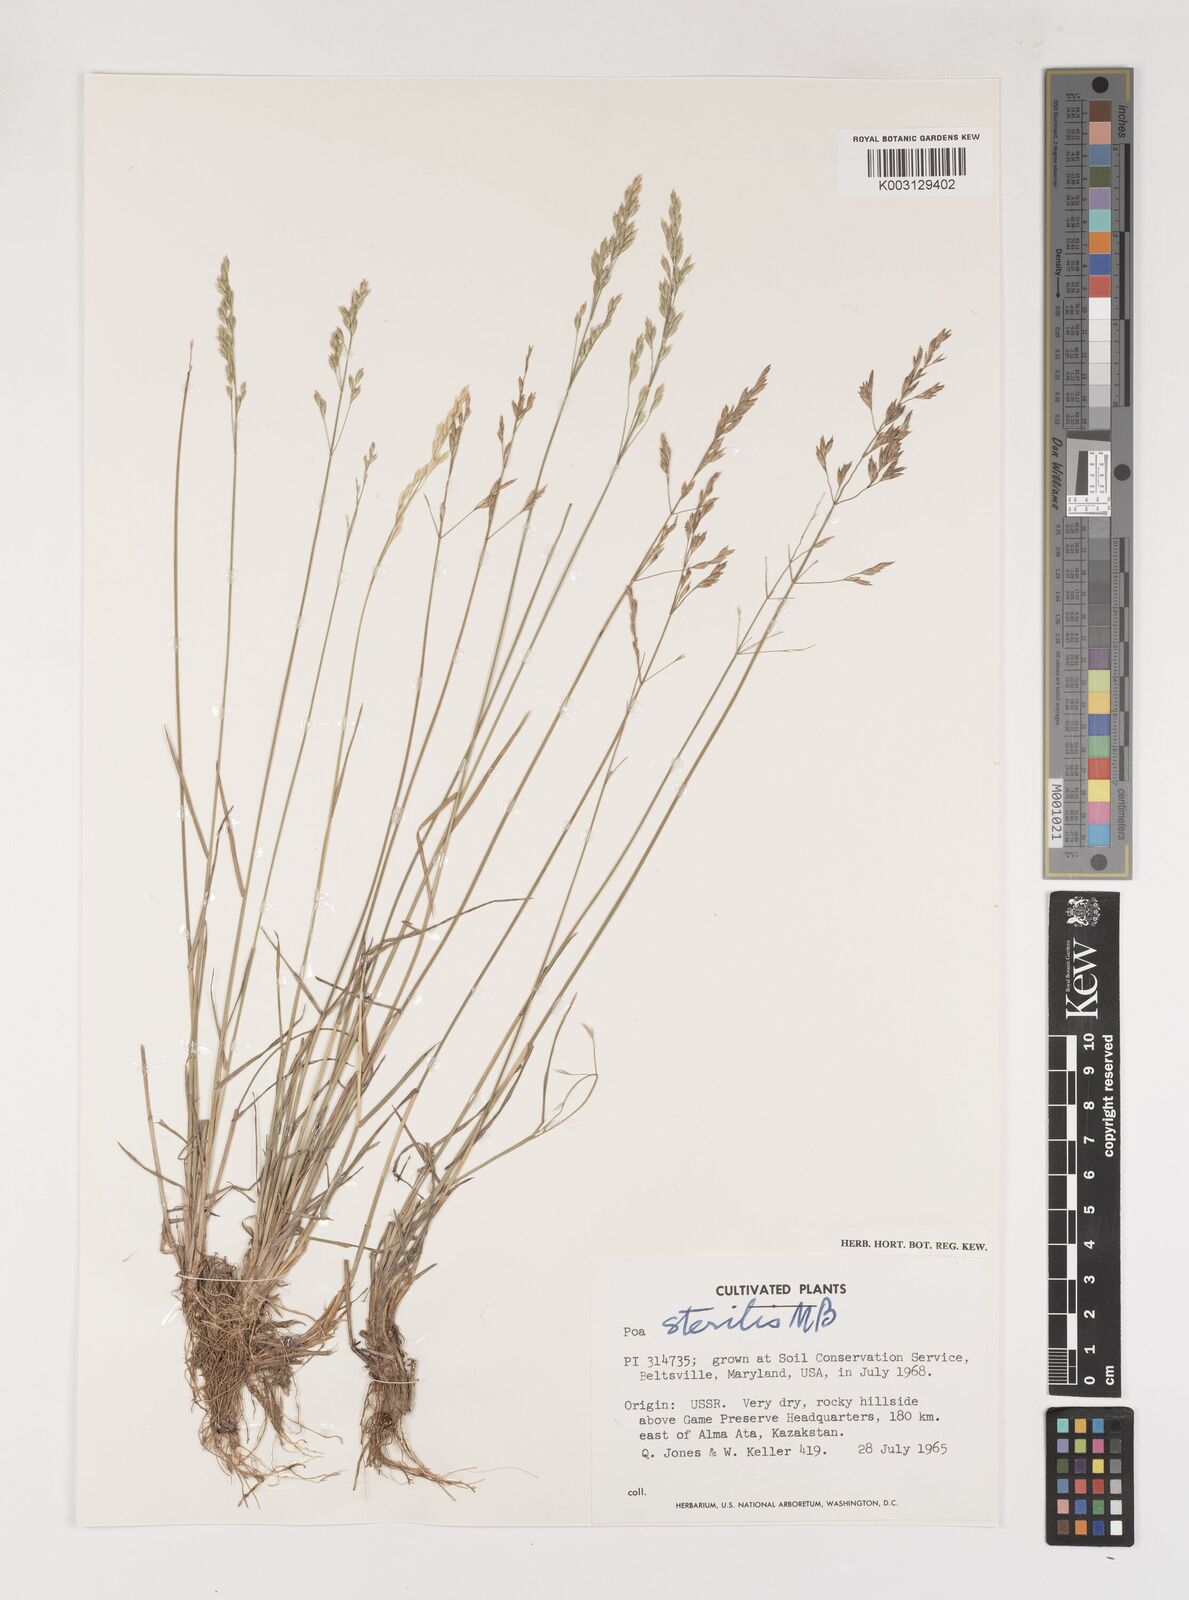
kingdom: Plantae
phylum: Tracheophyta
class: Liliopsida
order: Poales
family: Poaceae
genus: Poa
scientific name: Poa sterilis
